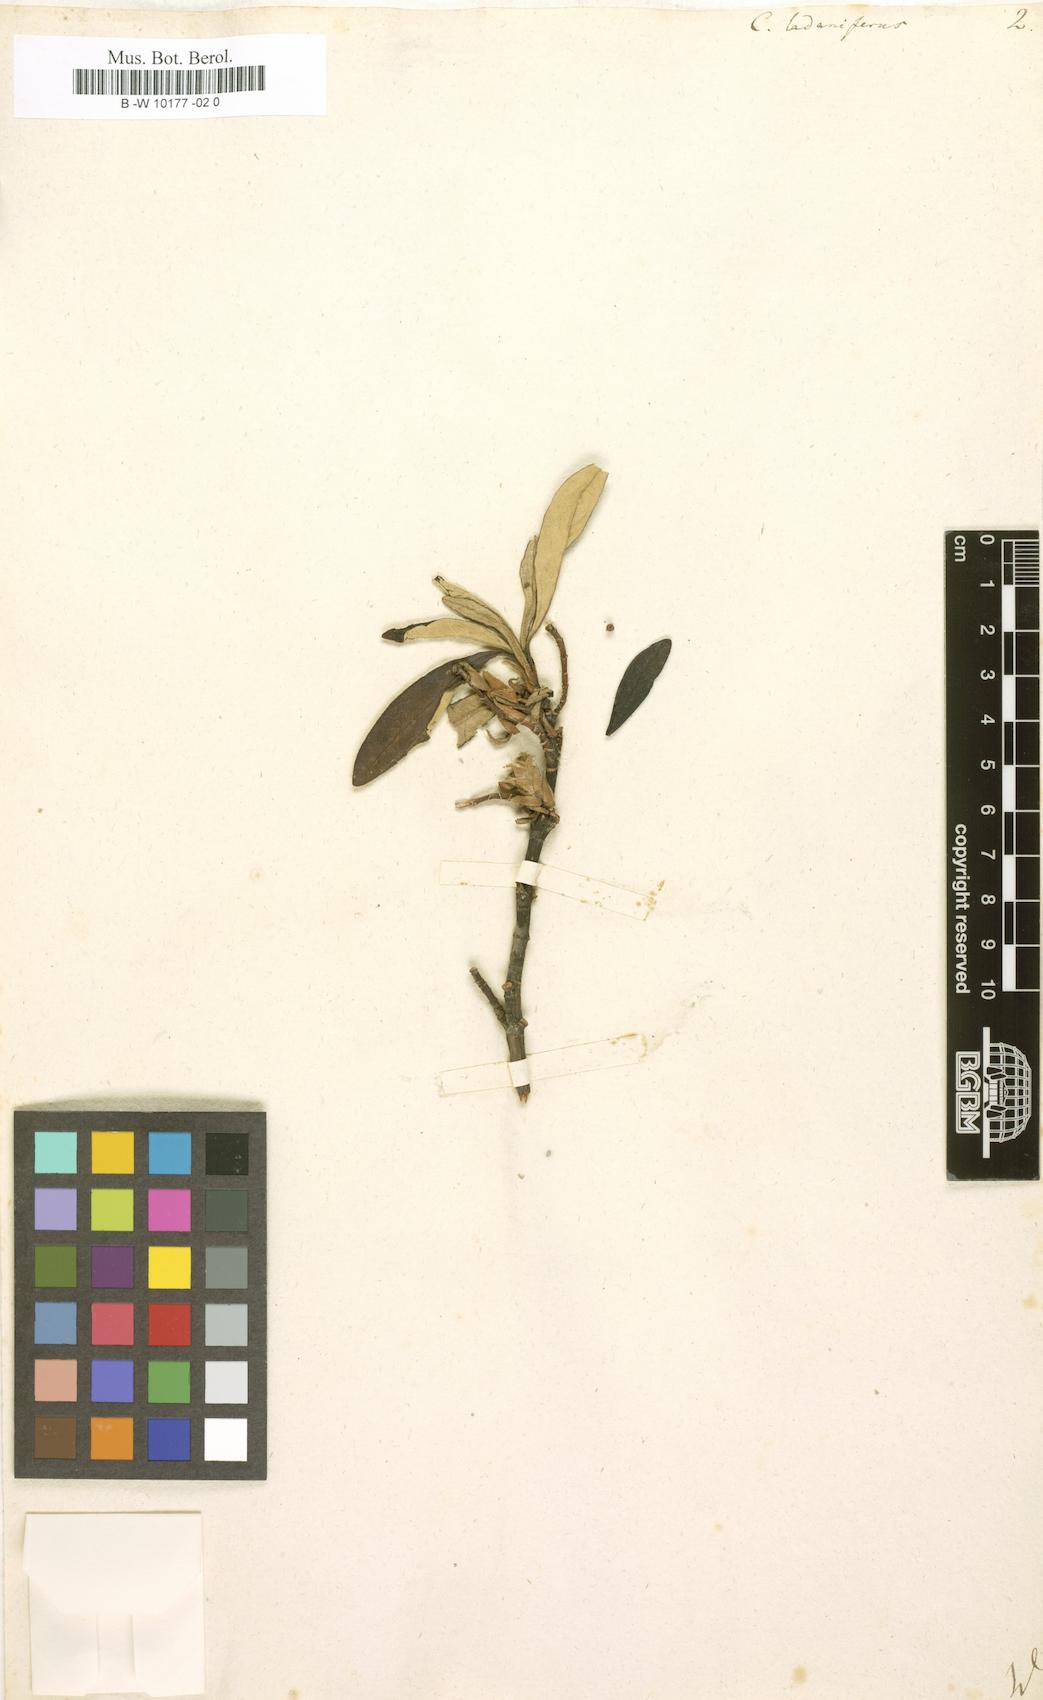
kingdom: Plantae
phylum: Tracheophyta
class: Magnoliopsida
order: Malvales
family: Cistaceae
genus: Cistus
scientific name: Cistus creticus
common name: Cretan rockrose
